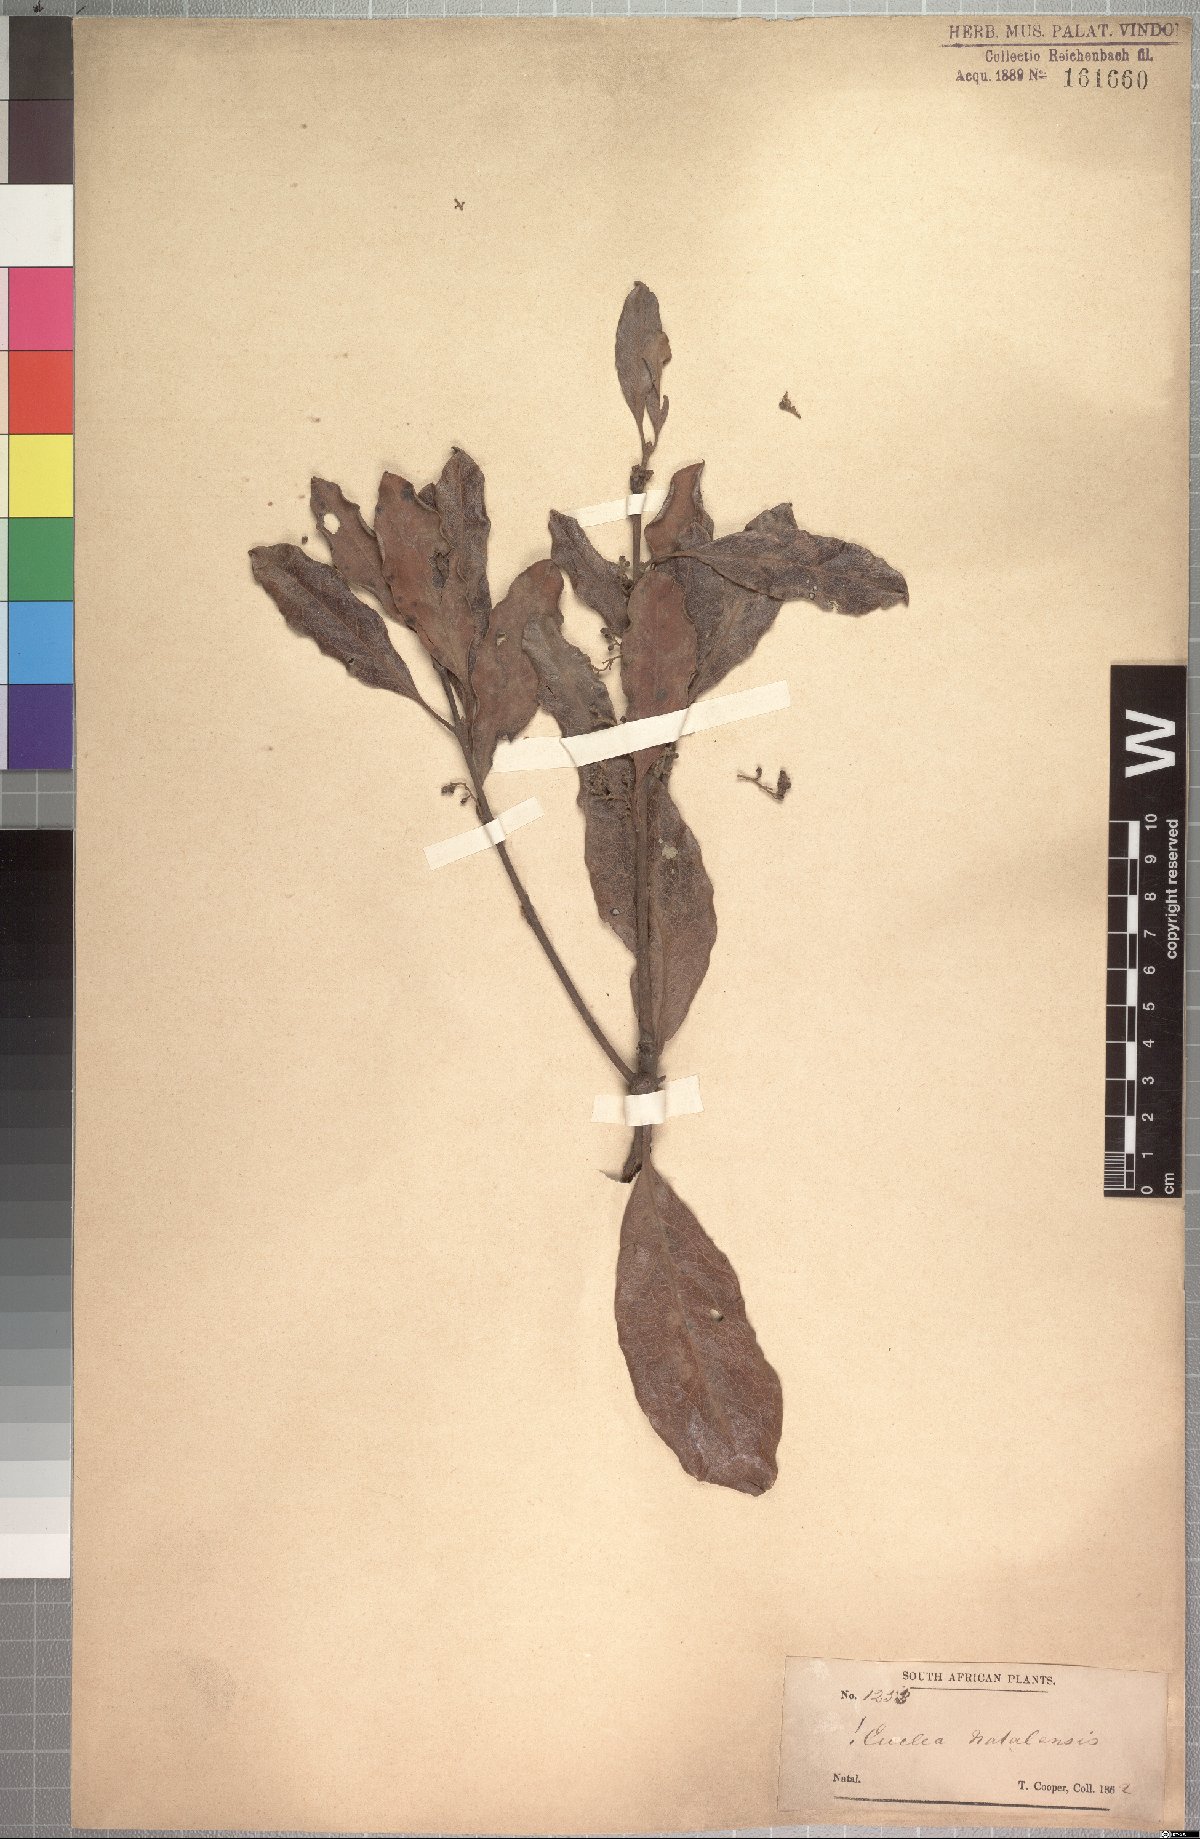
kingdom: Plantae
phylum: Tracheophyta
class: Magnoliopsida
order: Ericales
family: Ebenaceae
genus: Euclea
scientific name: Euclea natalensis
